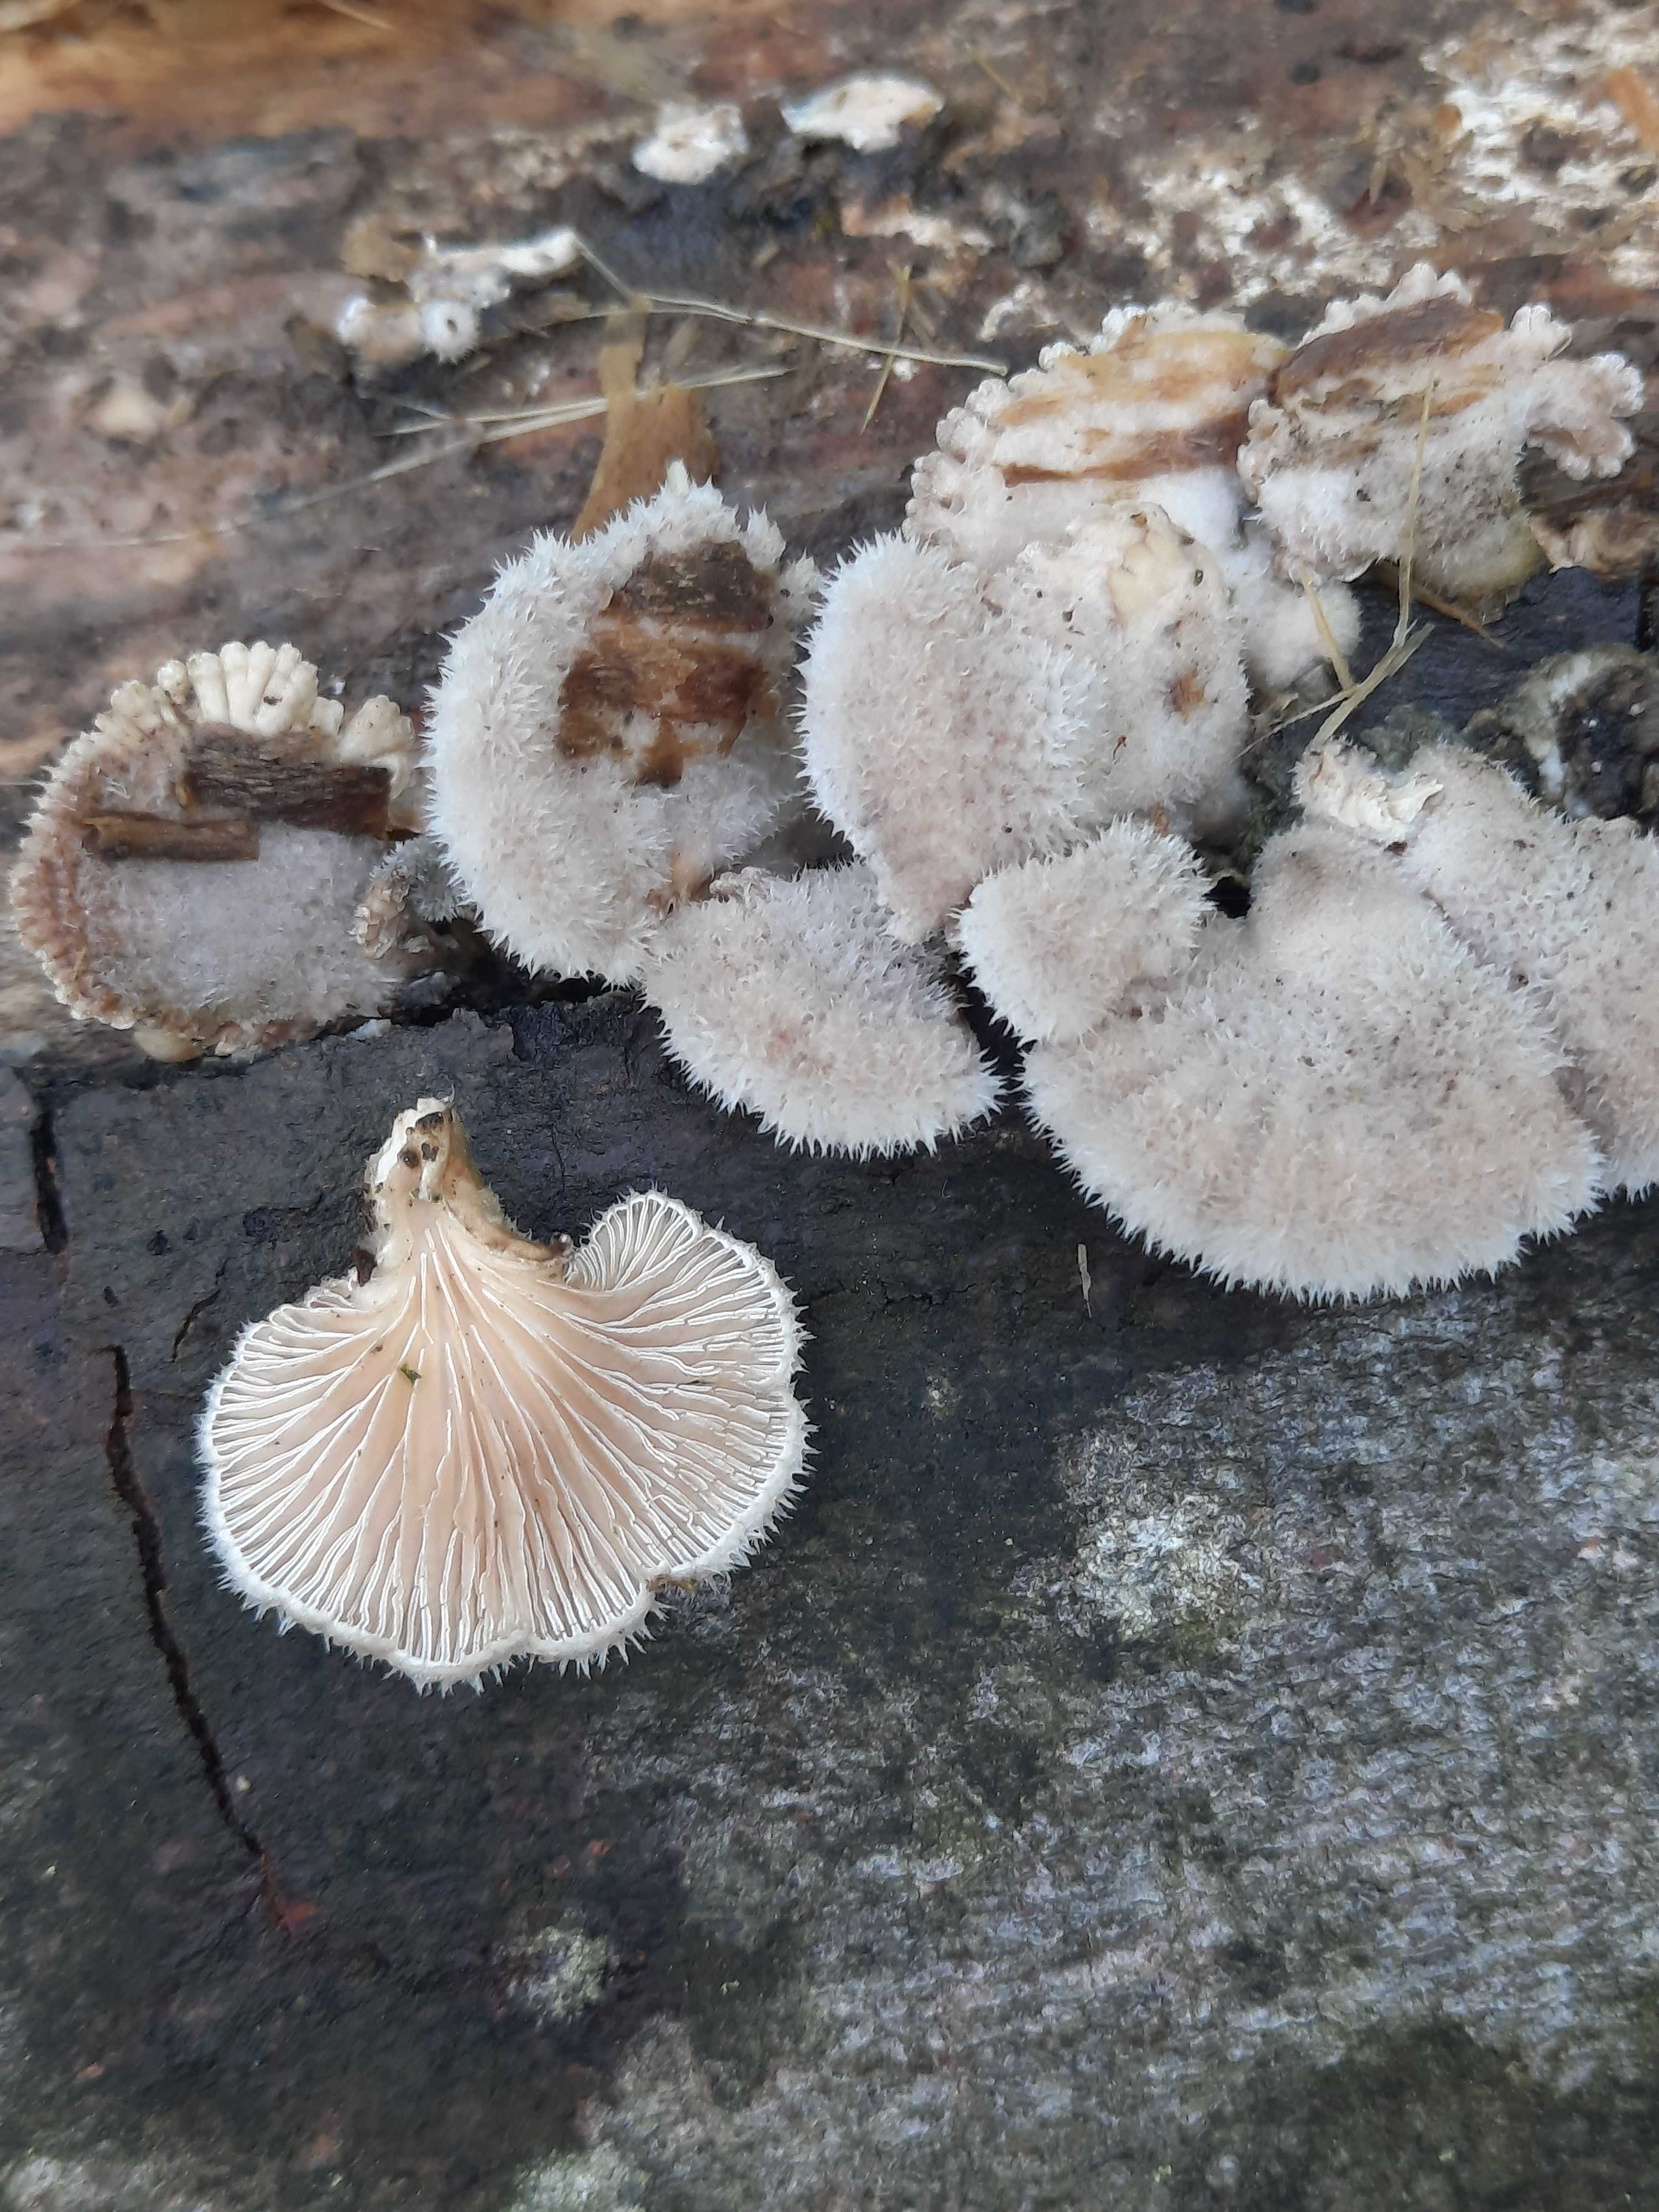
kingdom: Fungi
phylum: Basidiomycota
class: Agaricomycetes
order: Agaricales
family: Schizophyllaceae
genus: Schizophyllum
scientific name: Schizophyllum commune
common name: kløvblad
